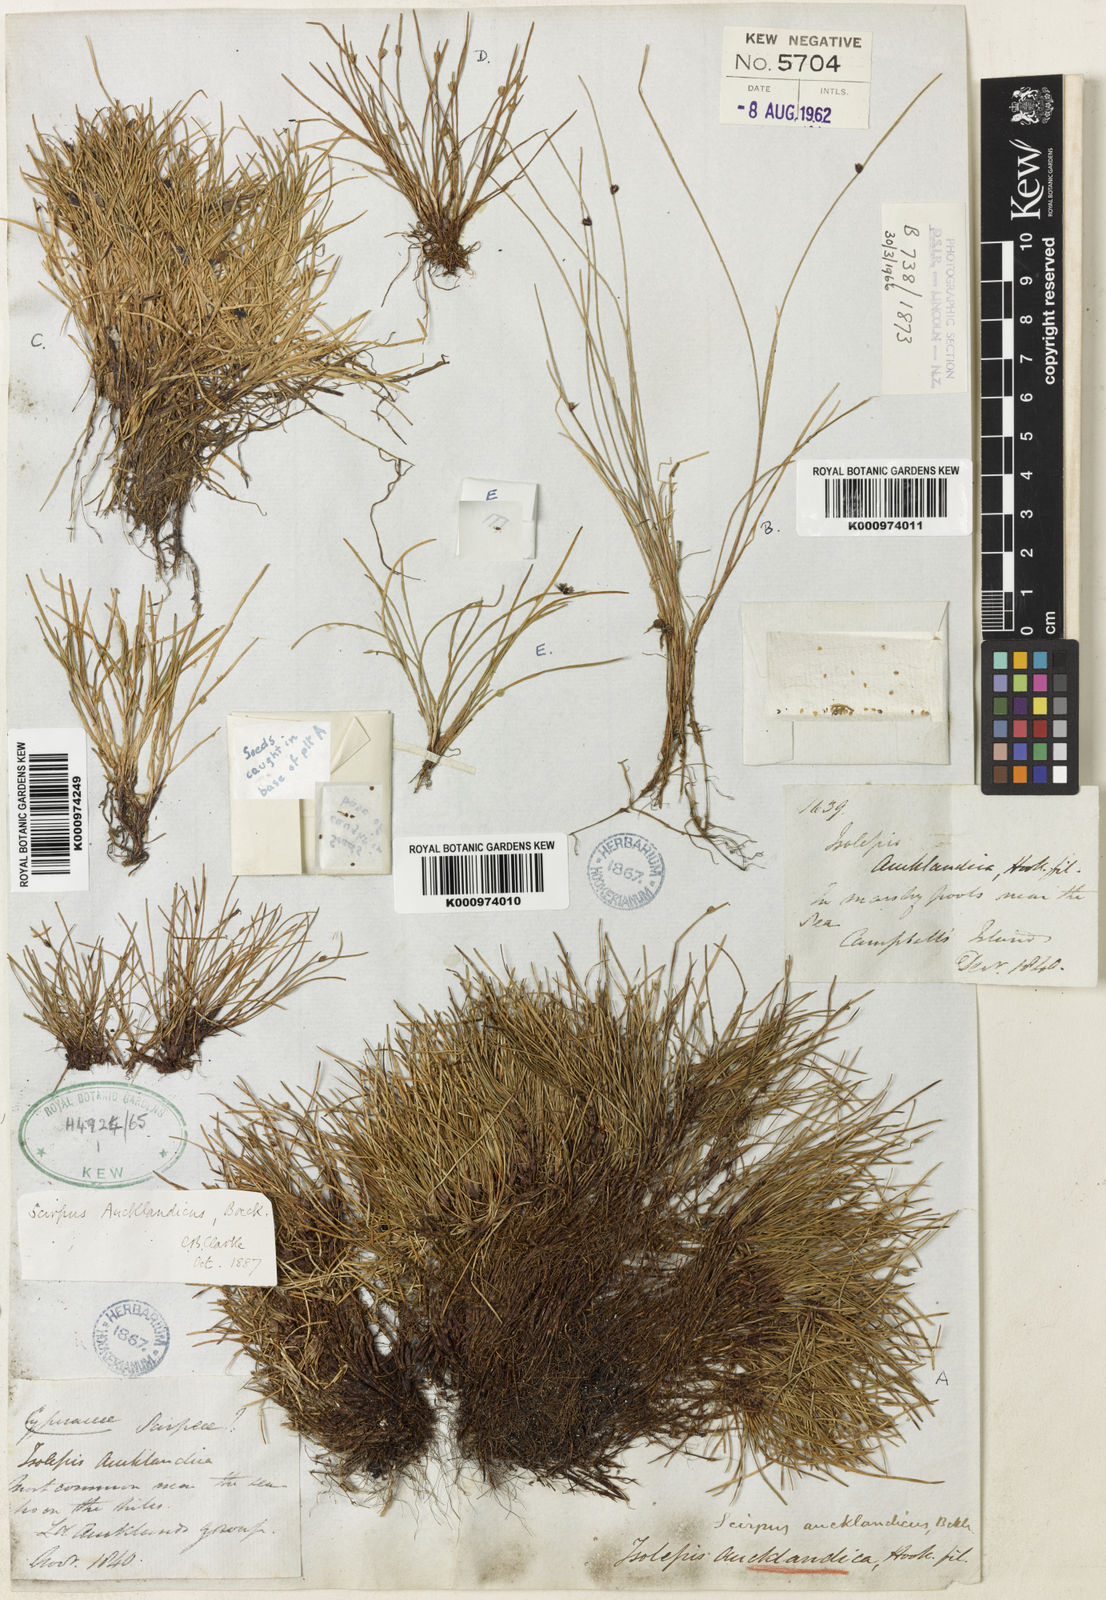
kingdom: Plantae
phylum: Tracheophyta
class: Liliopsida
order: Poales
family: Cyperaceae
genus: Isolepis
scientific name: Isolepis aucklandica
